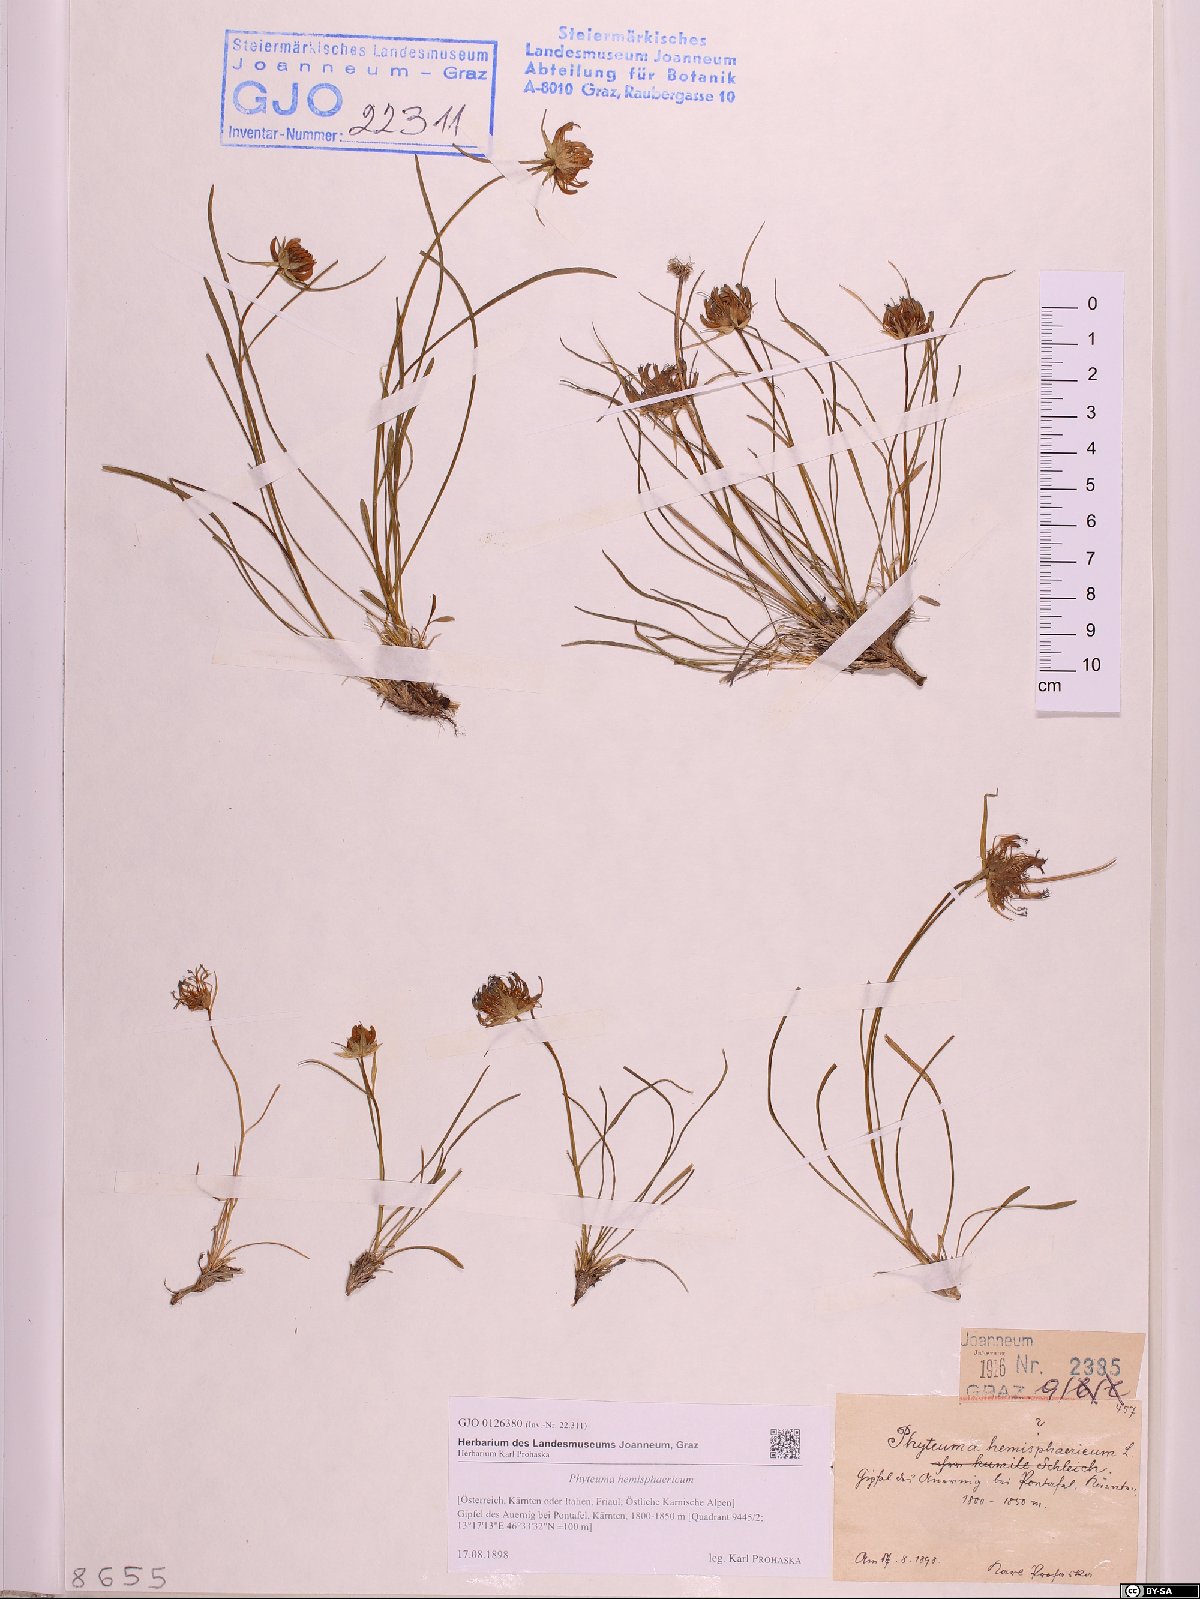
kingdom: Plantae
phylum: Tracheophyta
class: Magnoliopsida
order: Asterales
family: Campanulaceae
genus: Phyteuma
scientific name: Phyteuma hemisphaericum
